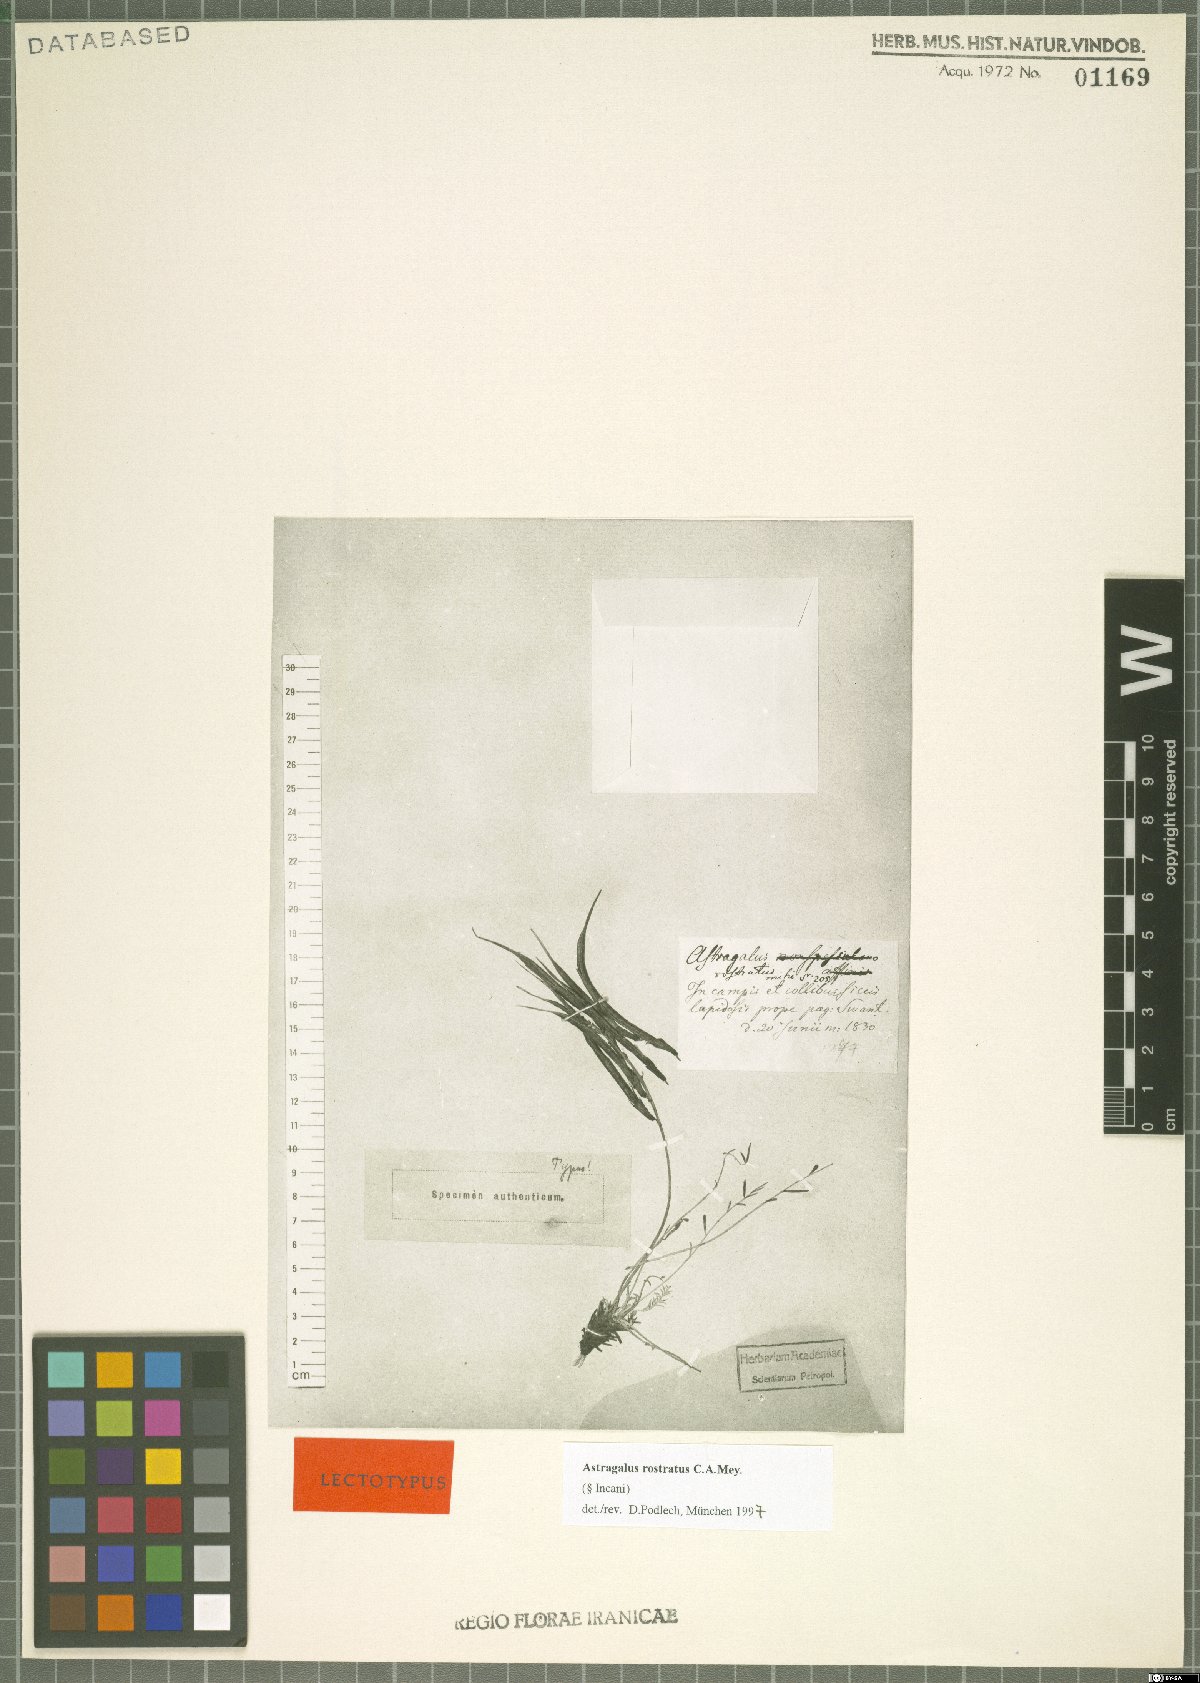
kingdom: Plantae
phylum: Tracheophyta
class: Magnoliopsida
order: Fabales
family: Fabaceae
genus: Astragalus
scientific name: Astragalus rostratus
